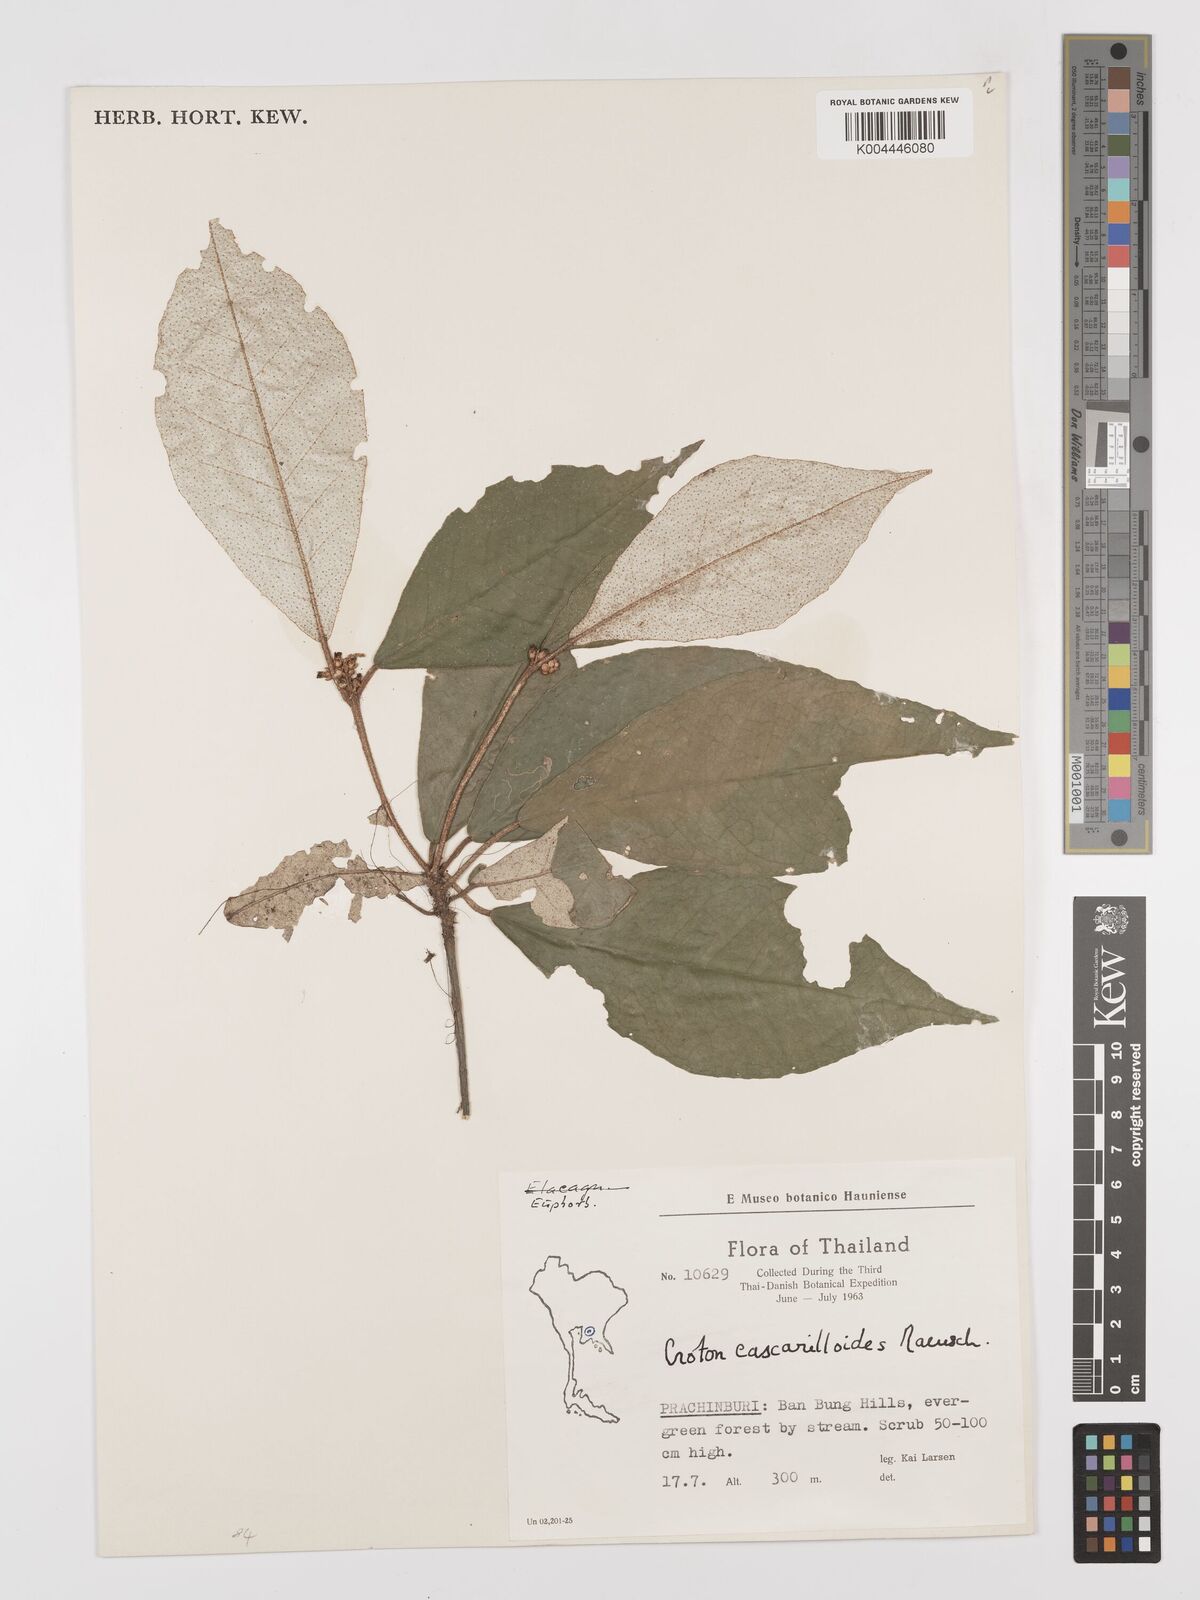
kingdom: Plantae
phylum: Tracheophyta
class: Magnoliopsida
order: Malpighiales
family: Euphorbiaceae
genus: Croton
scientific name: Croton cascarilloides
